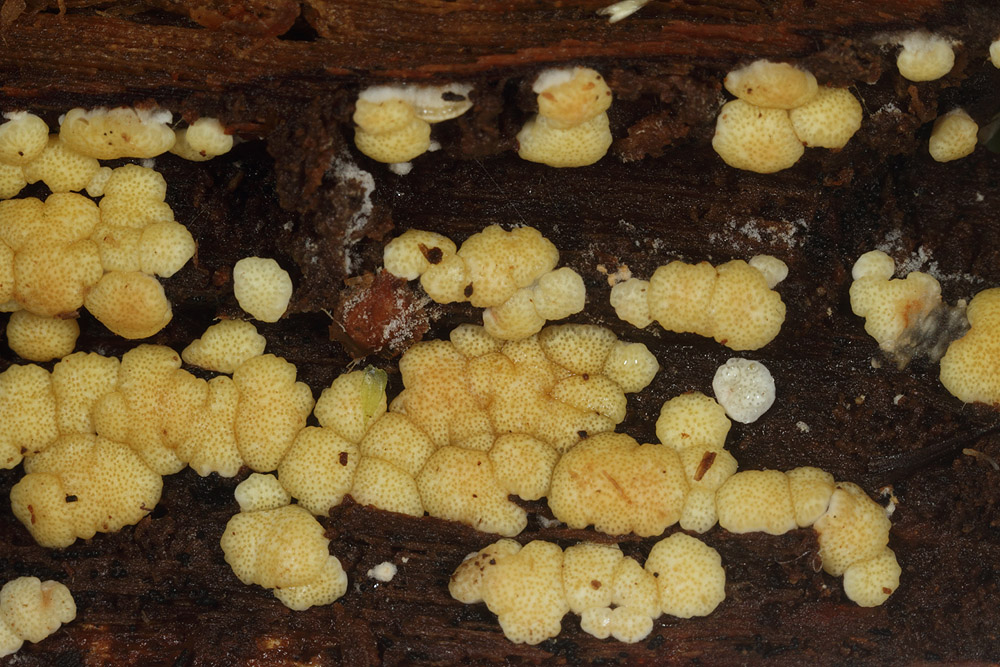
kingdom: Fungi
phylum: Ascomycota
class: Sordariomycetes
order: Hypocreales
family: Hypocreaceae
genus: Trichoderma
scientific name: Trichoderma
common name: kødkerne
